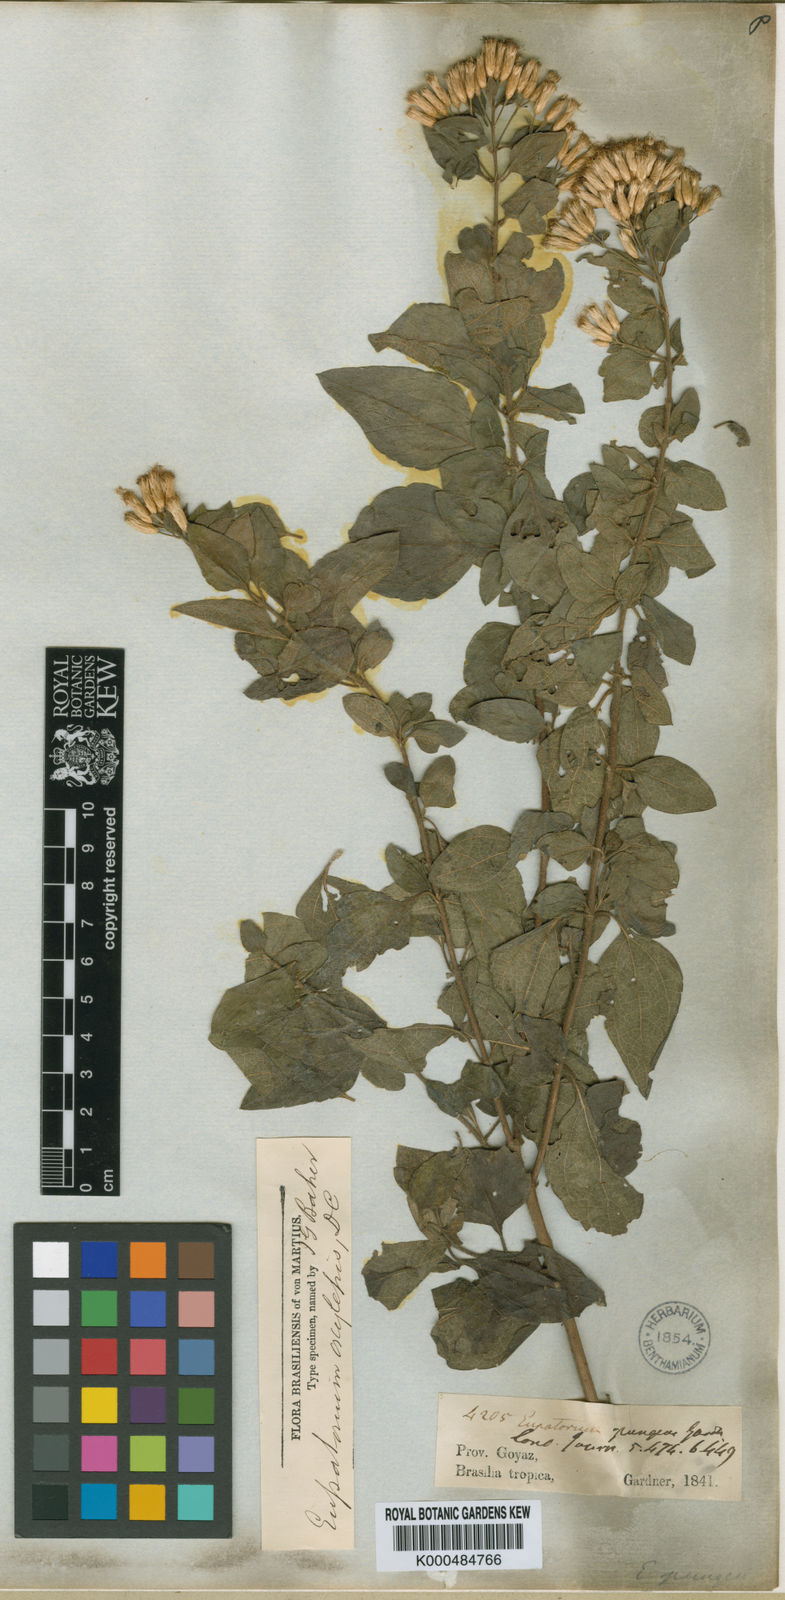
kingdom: Plantae
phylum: Tracheophyta
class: Magnoliopsida
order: Asterales
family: Asteraceae
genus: Chromolaena
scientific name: Chromolaena oxylepis
